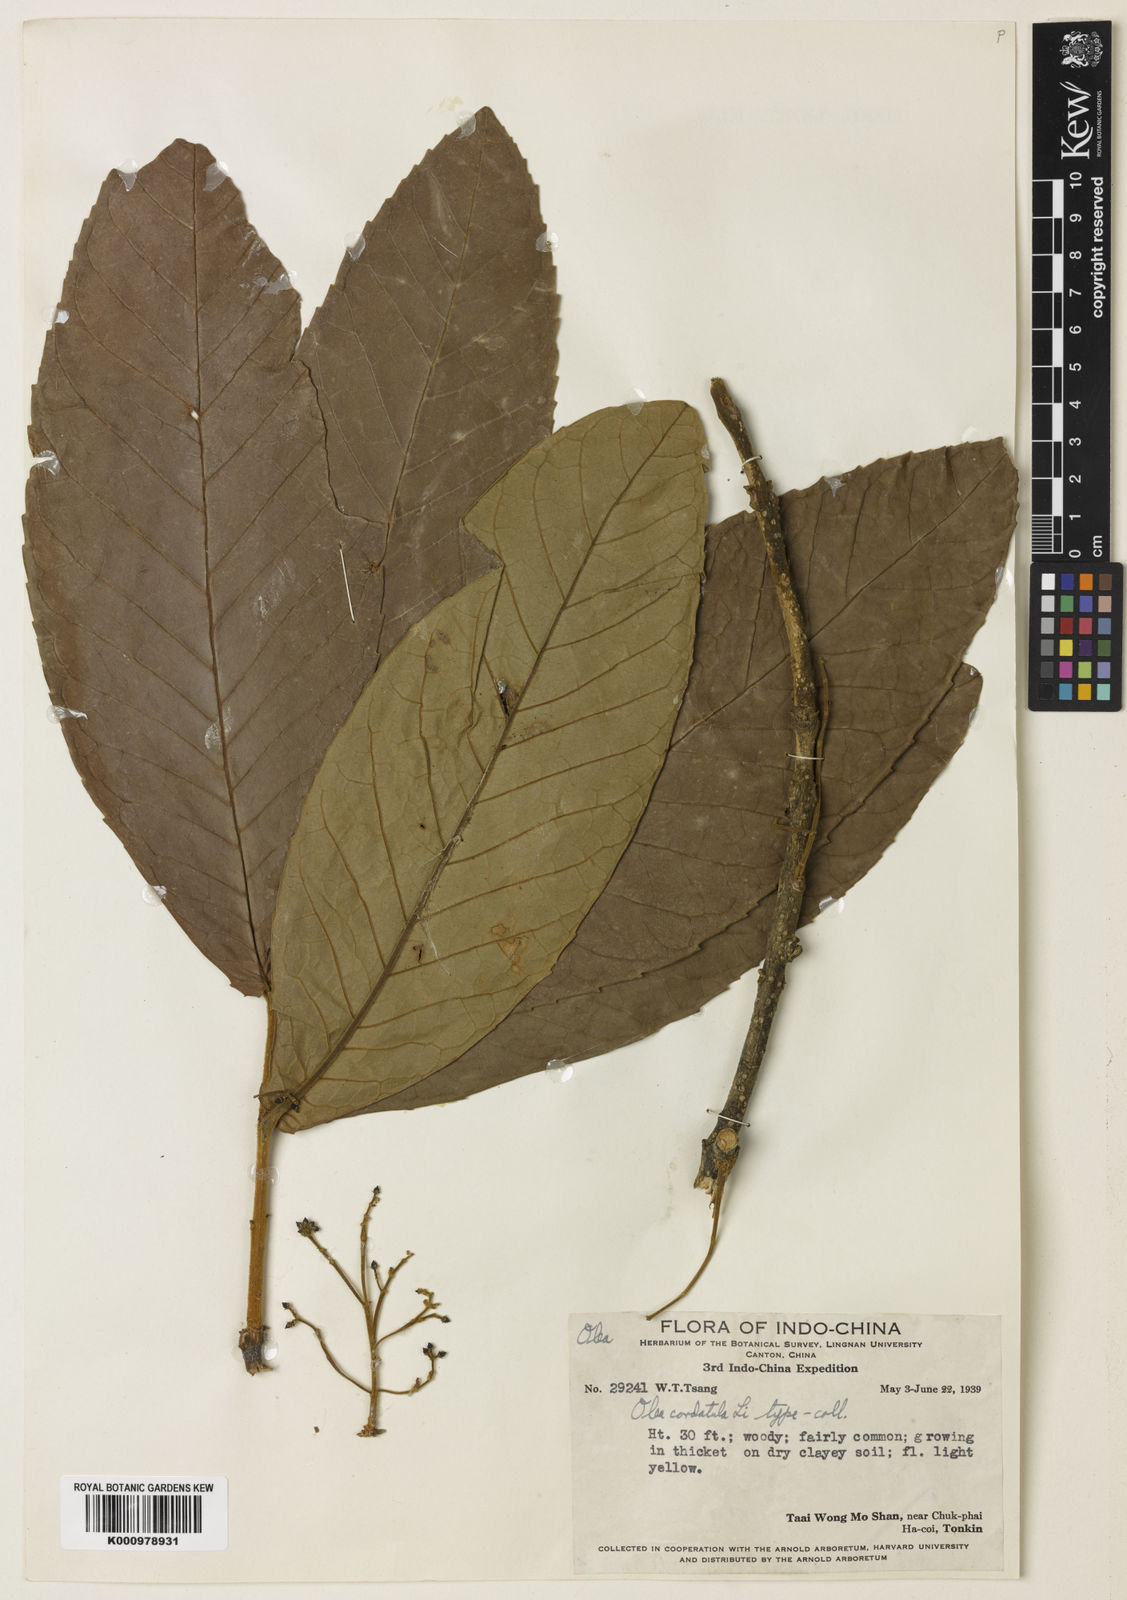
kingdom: Plantae
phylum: Tracheophyta
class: Magnoliopsida
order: Lamiales
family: Oleaceae
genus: Tetrapilus
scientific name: Tetrapilus cordatulus
